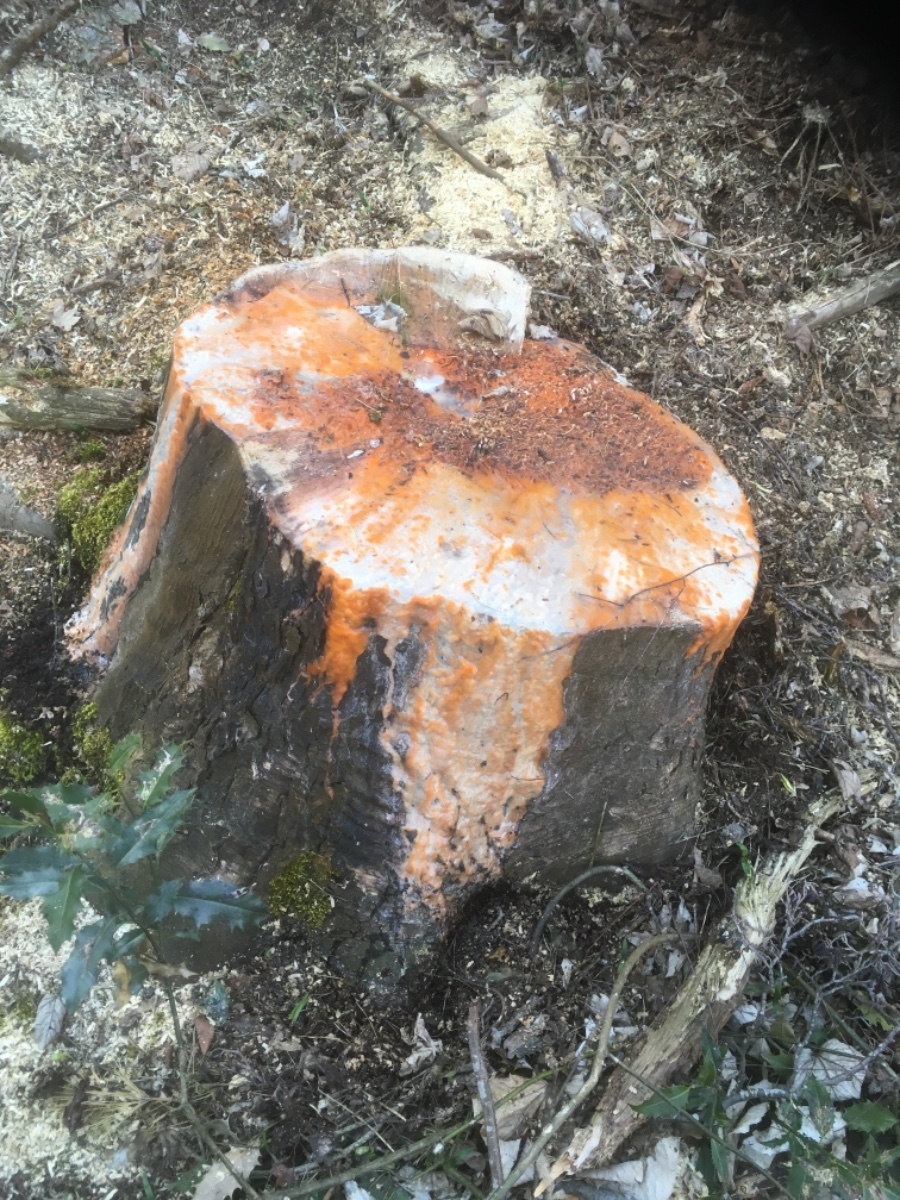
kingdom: Fungi
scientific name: Fungi
